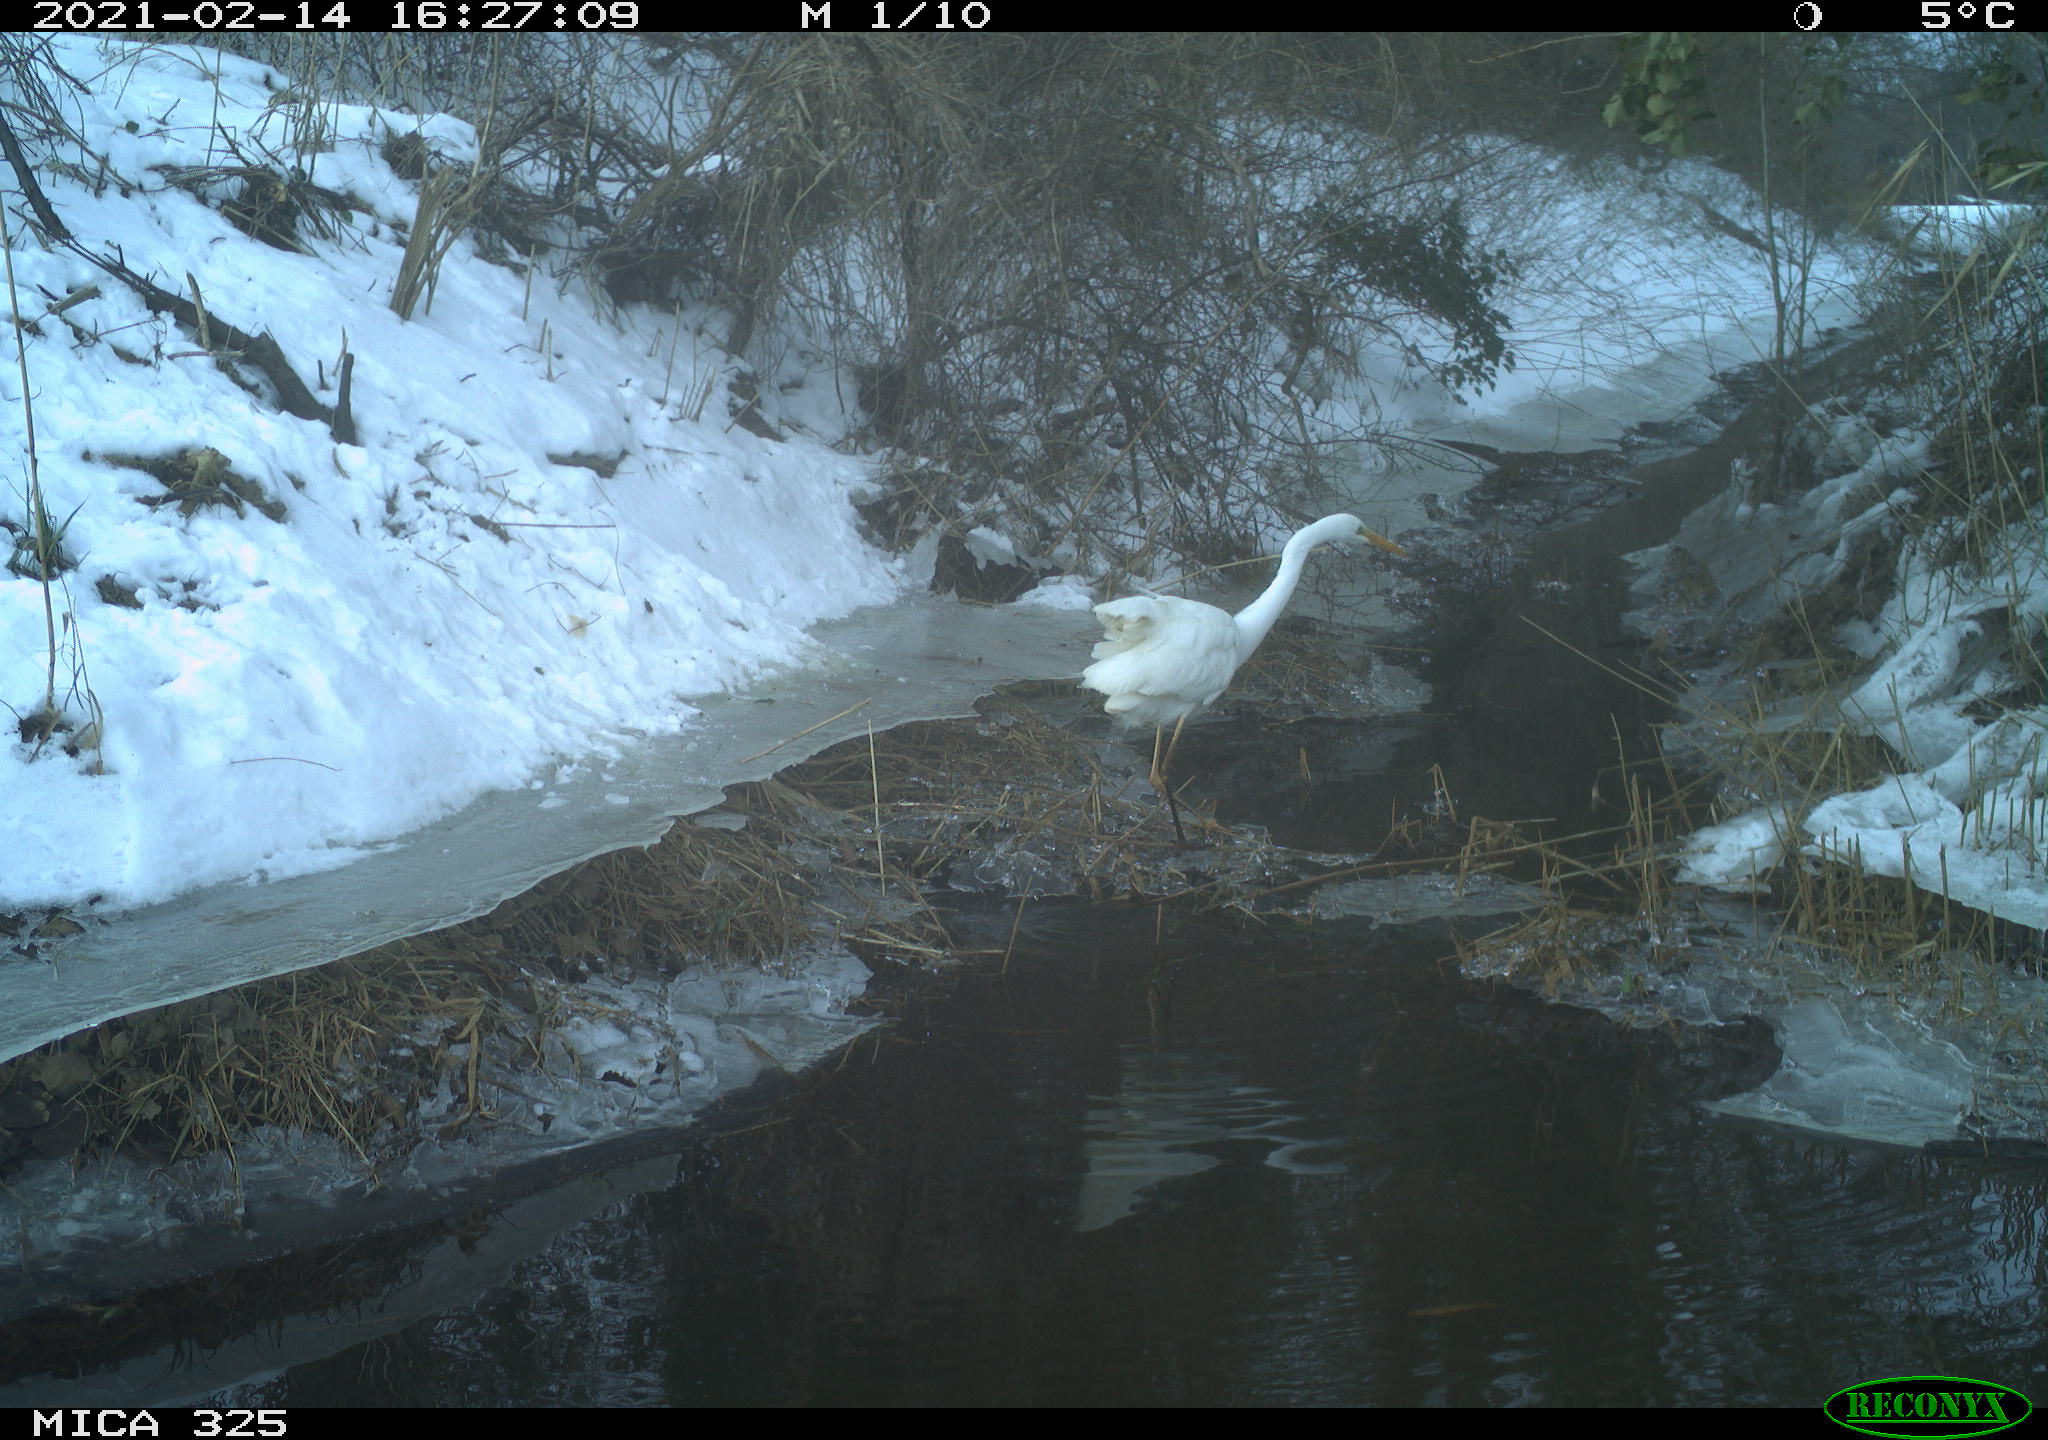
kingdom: Animalia
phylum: Chordata
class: Aves
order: Pelecaniformes
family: Ardeidae
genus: Ardea
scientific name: Ardea alba
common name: Great egret
